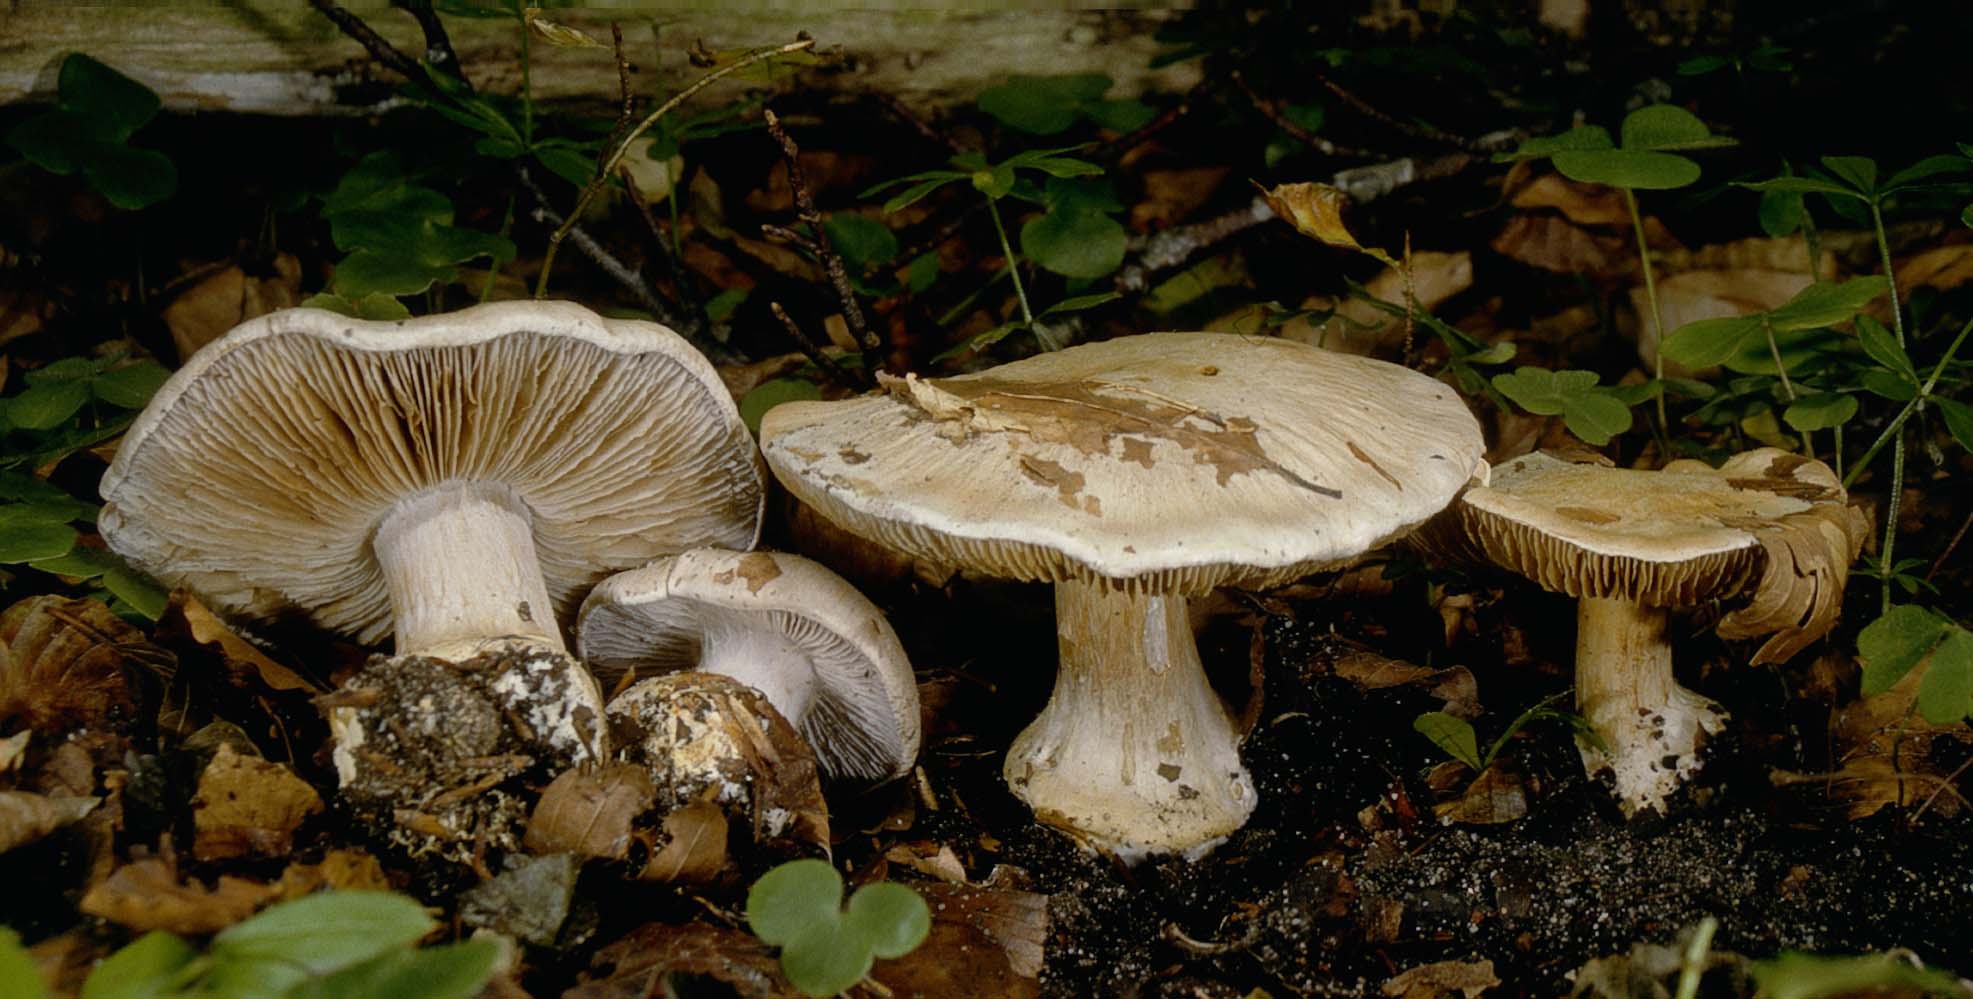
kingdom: Fungi
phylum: Basidiomycota
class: Agaricomycetes
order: Agaricales
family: Cortinariaceae
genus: Cortinarius
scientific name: Cortinarius foetens
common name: stribet slørhat
